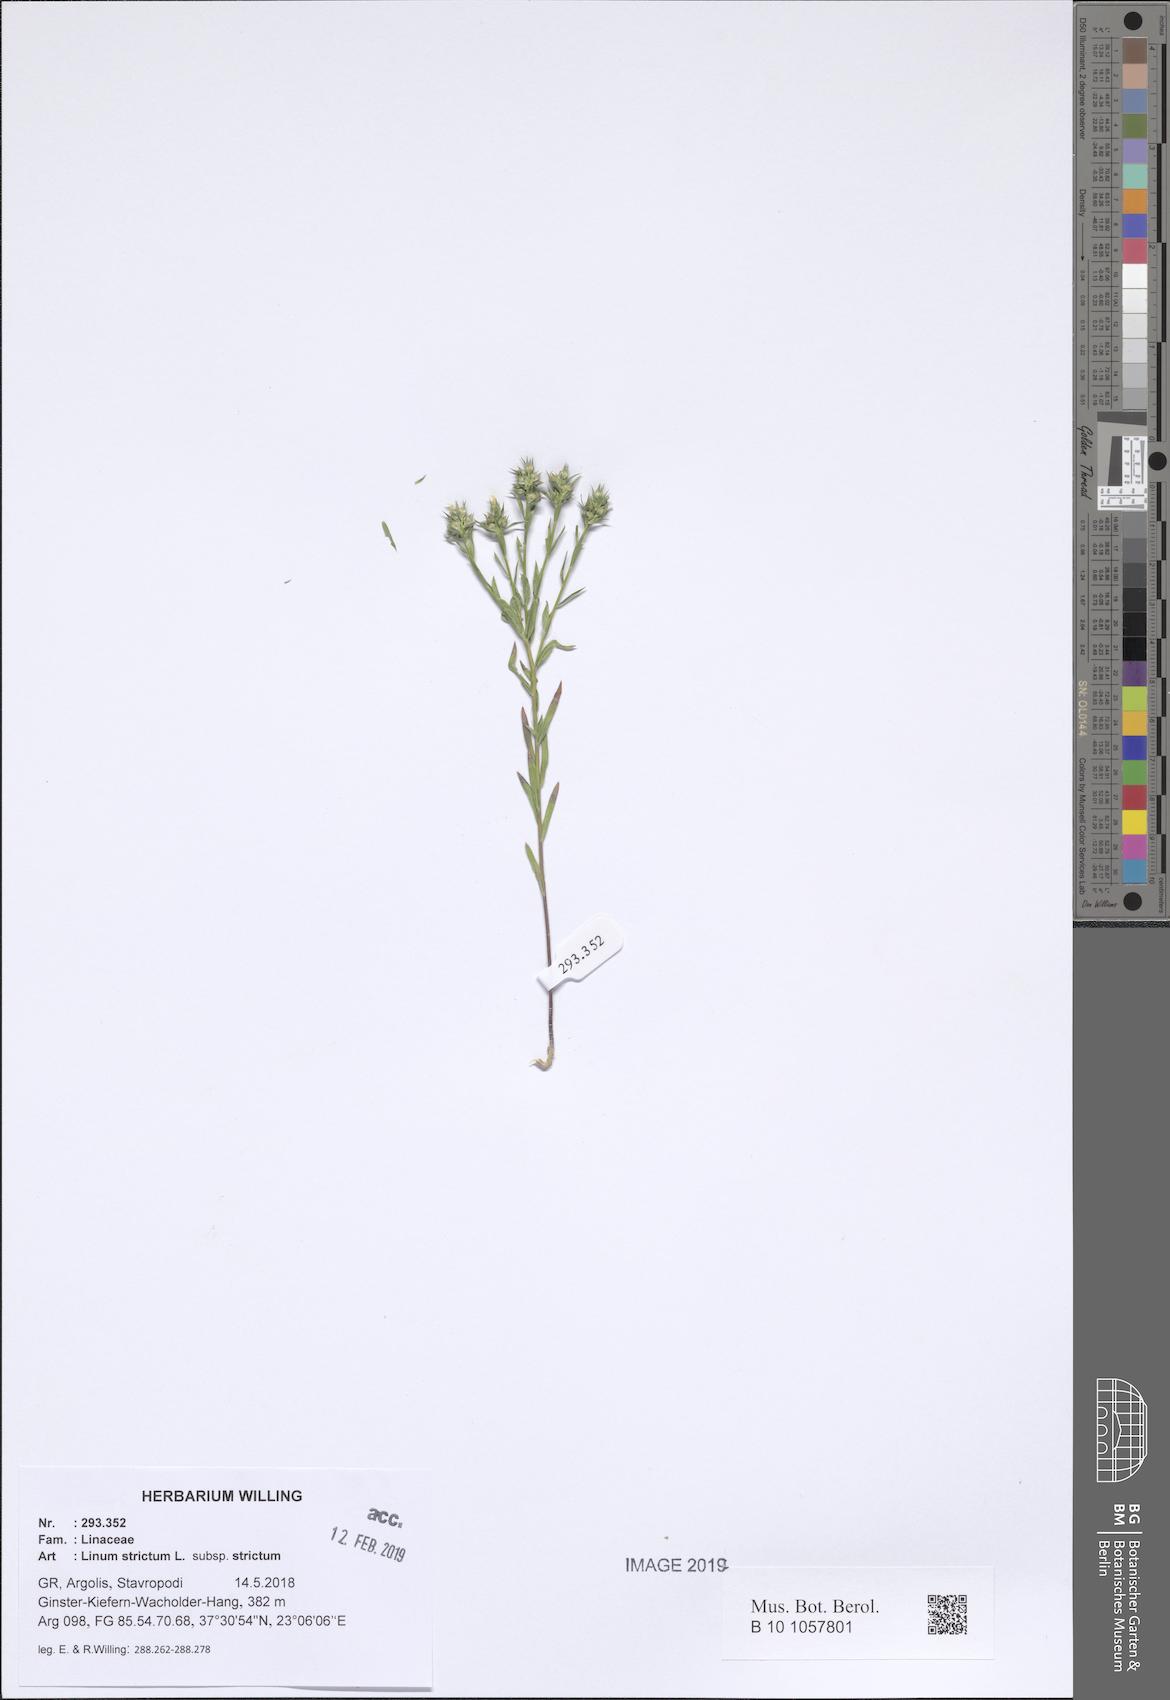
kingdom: Plantae
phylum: Tracheophyta
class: Magnoliopsida
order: Malpighiales
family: Linaceae
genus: Linum
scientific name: Linum strictum
